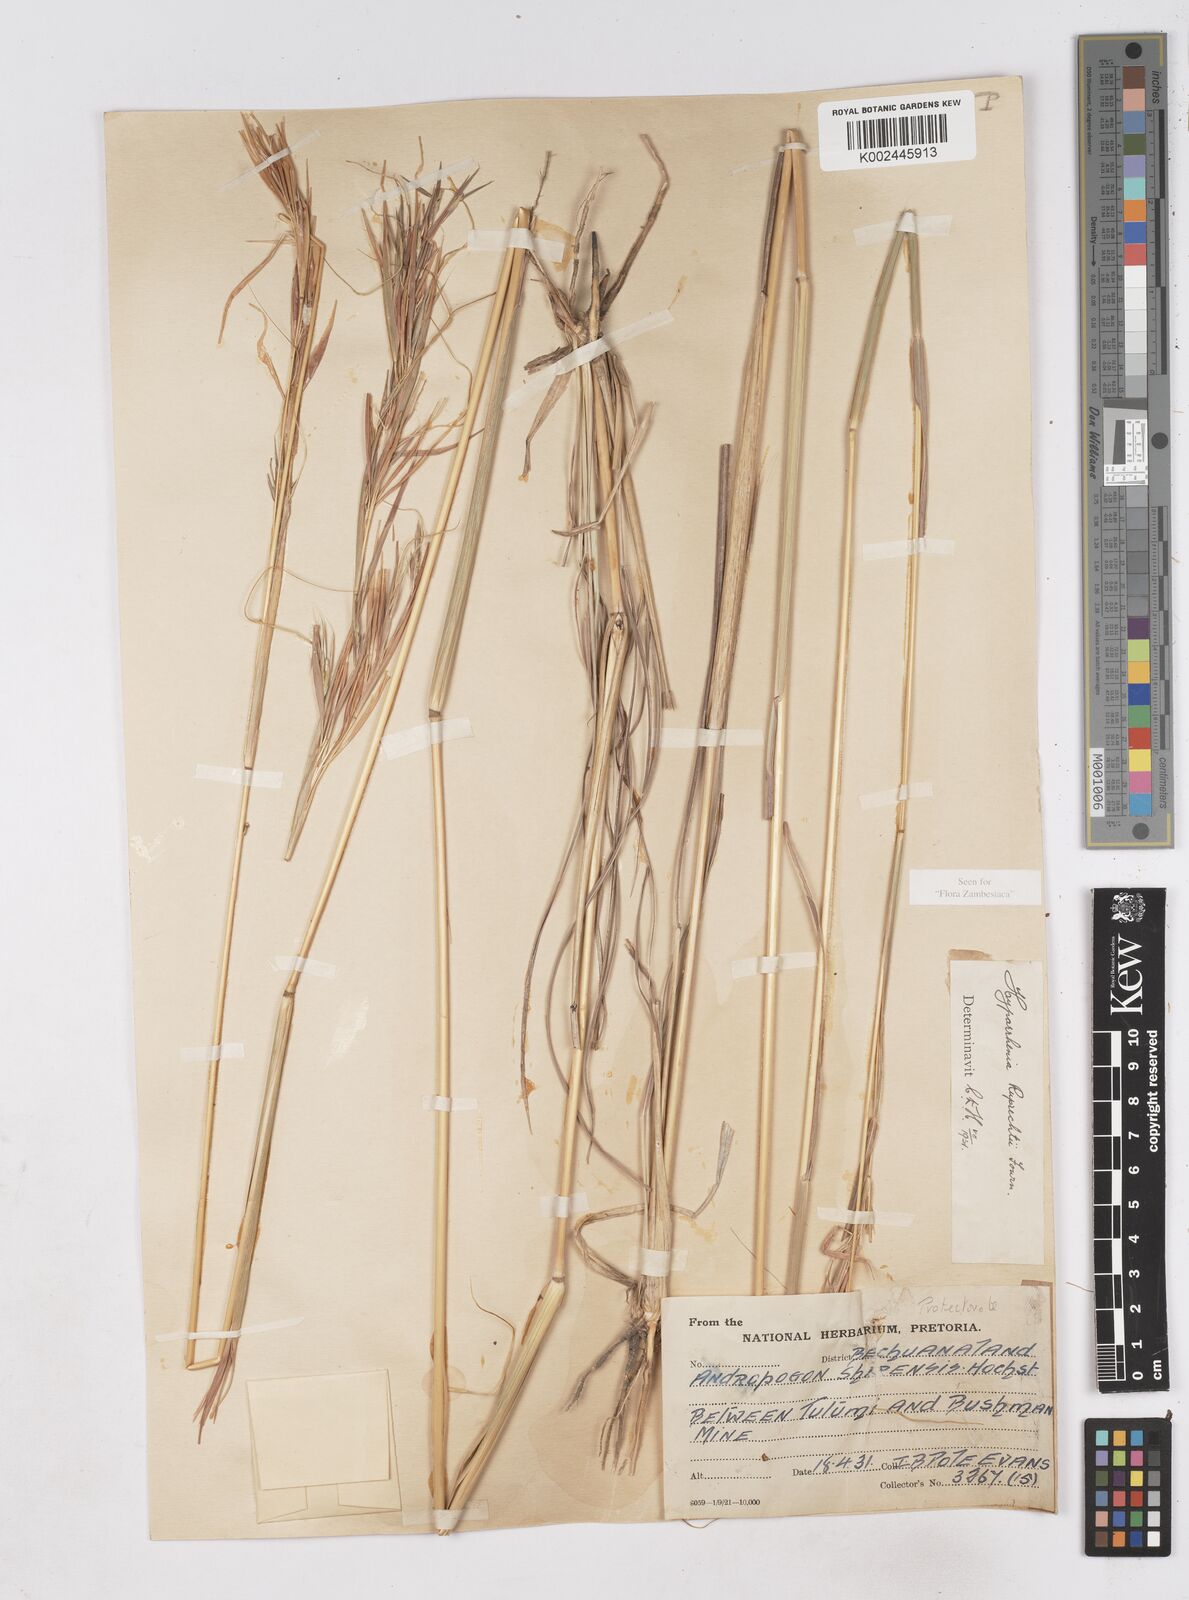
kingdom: Plantae
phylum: Tracheophyta
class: Liliopsida
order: Poales
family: Poaceae
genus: Hyperthelia
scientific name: Hyperthelia dissoluta
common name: Yellow thatching grass
